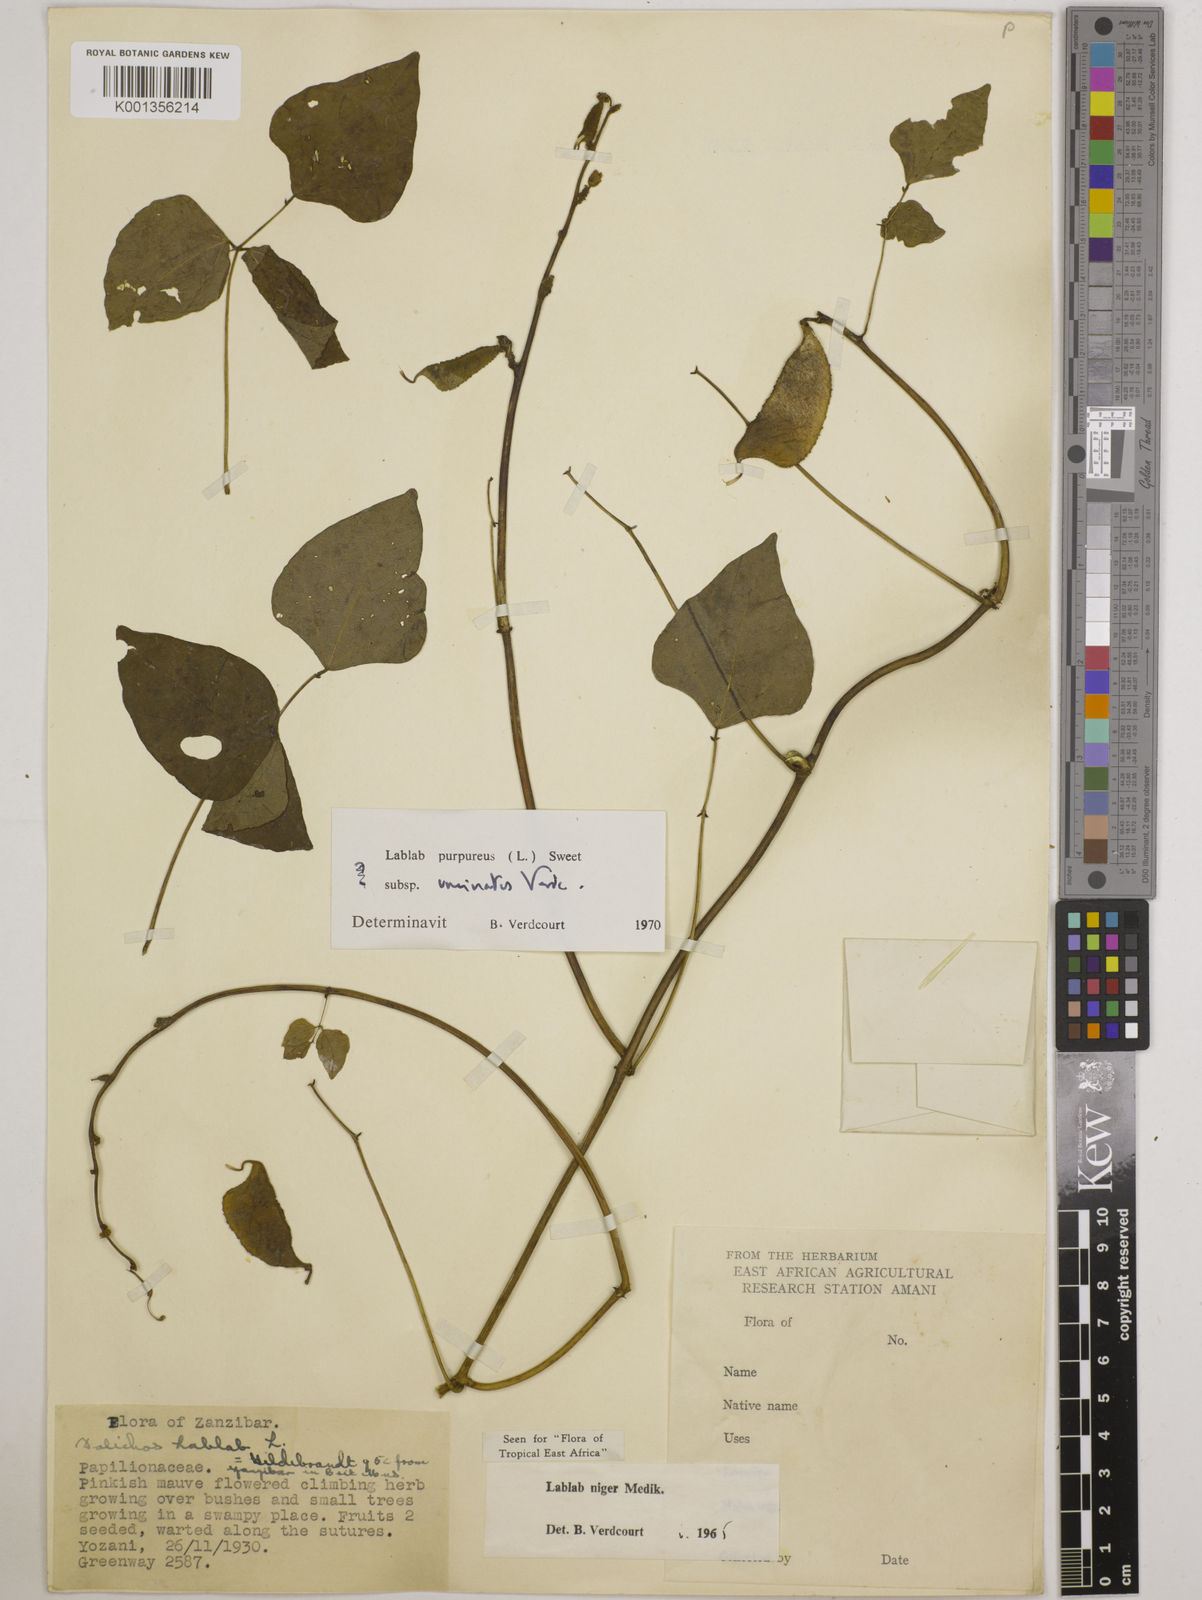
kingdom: Plantae
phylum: Tracheophyta
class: Magnoliopsida
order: Fabales
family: Fabaceae
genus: Lablab
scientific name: Lablab purpureus
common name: Lablab-bean
